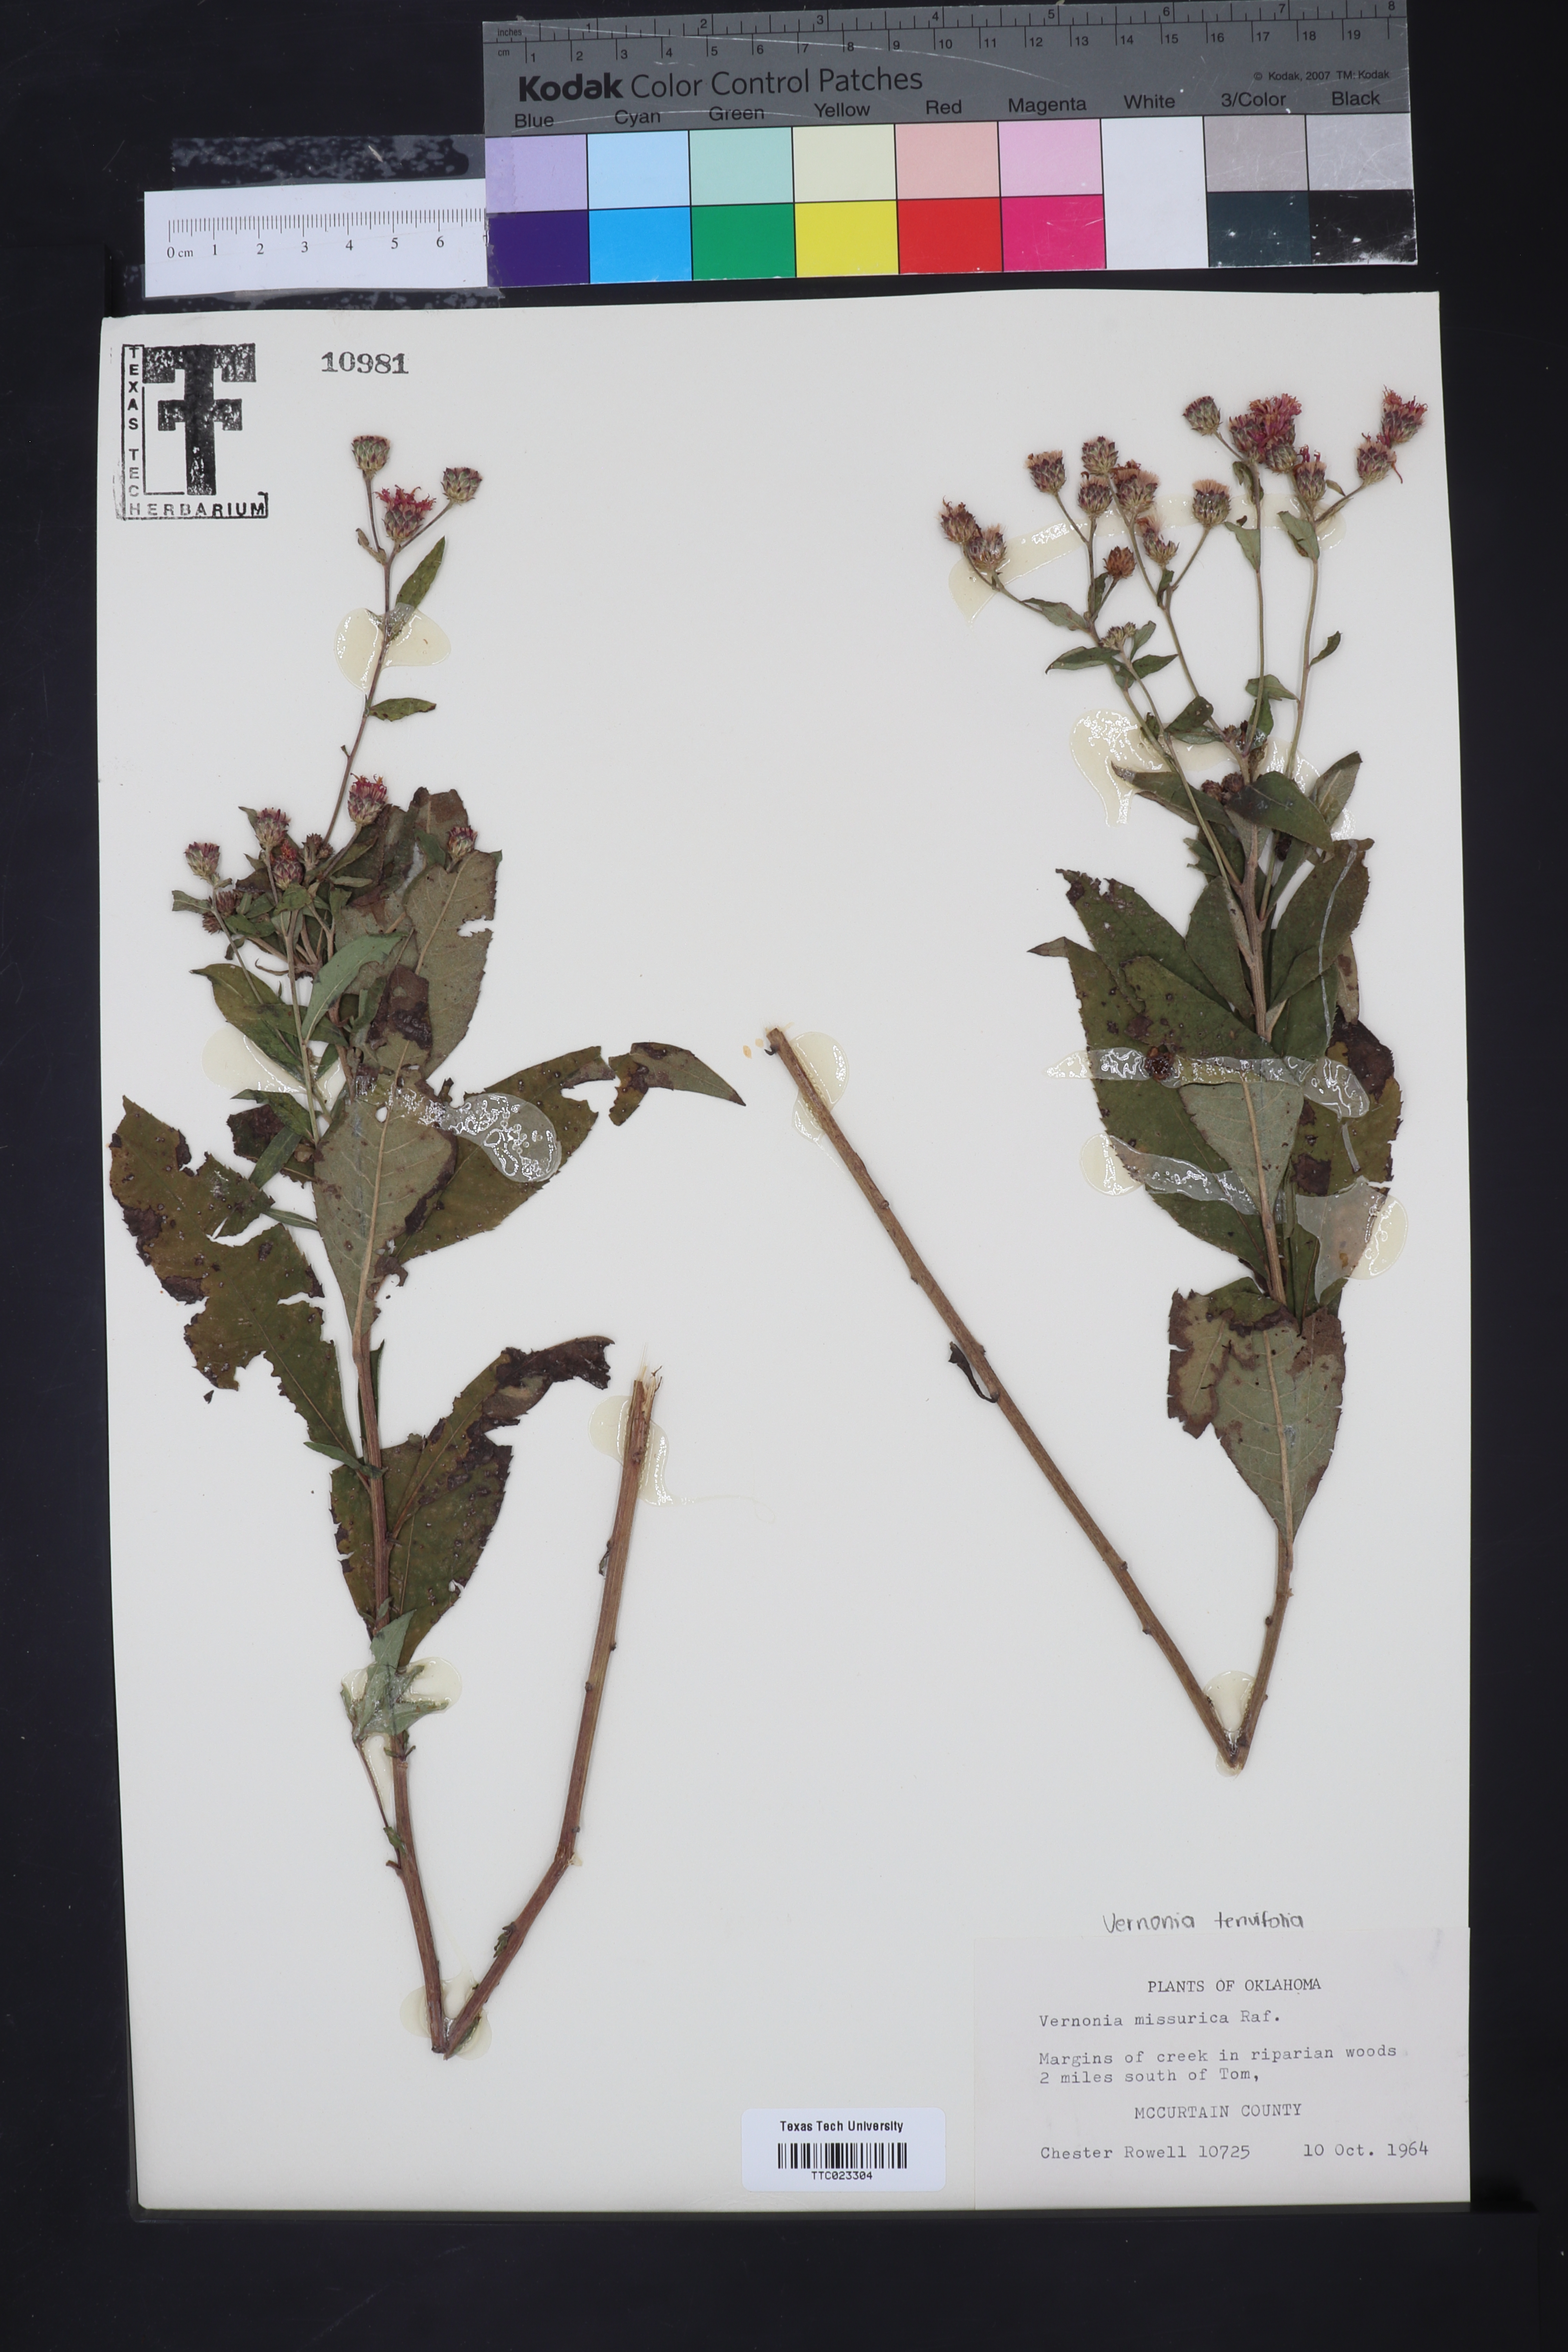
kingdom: Plantae
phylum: Tracheophyta
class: Magnoliopsida
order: Asterales
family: Asteraceae
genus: Vernonia
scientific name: Vernonia missurica
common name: Missouri ironweed
